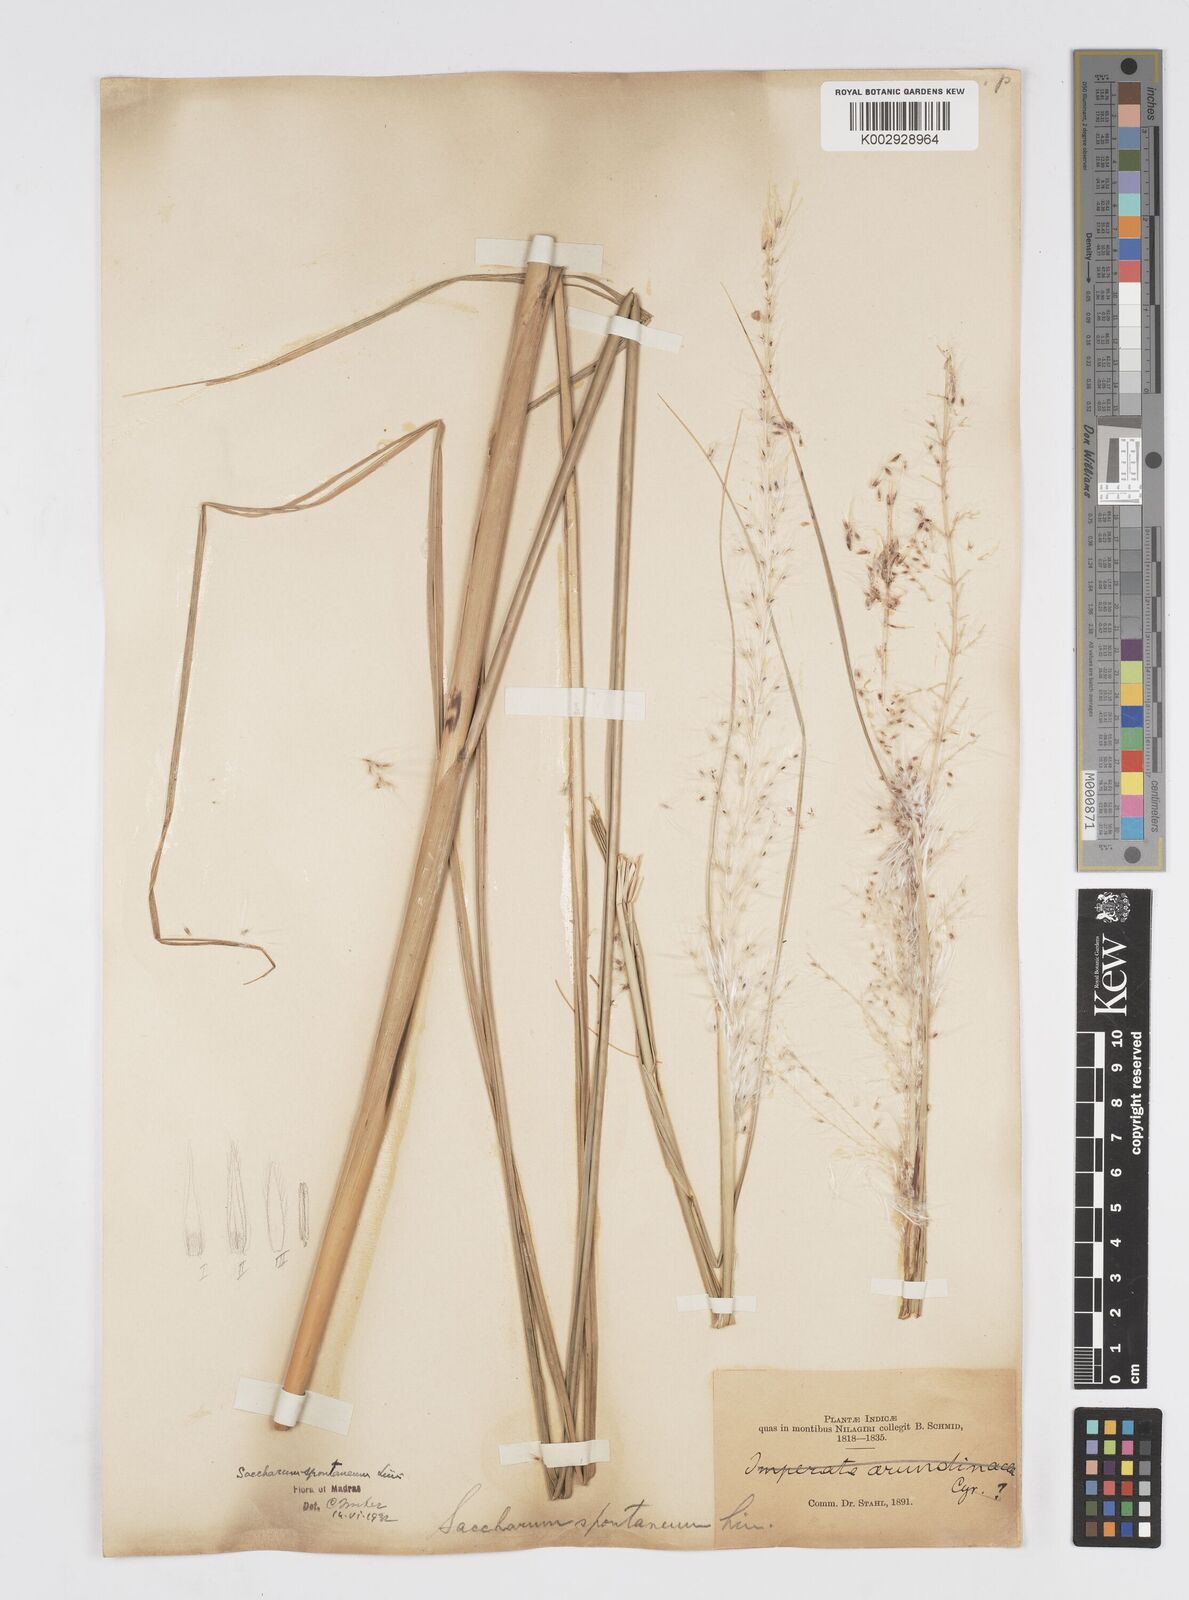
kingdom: Plantae
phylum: Tracheophyta
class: Liliopsida
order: Poales
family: Poaceae
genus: Saccharum
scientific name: Saccharum spontaneum
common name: Wild sugarcane
